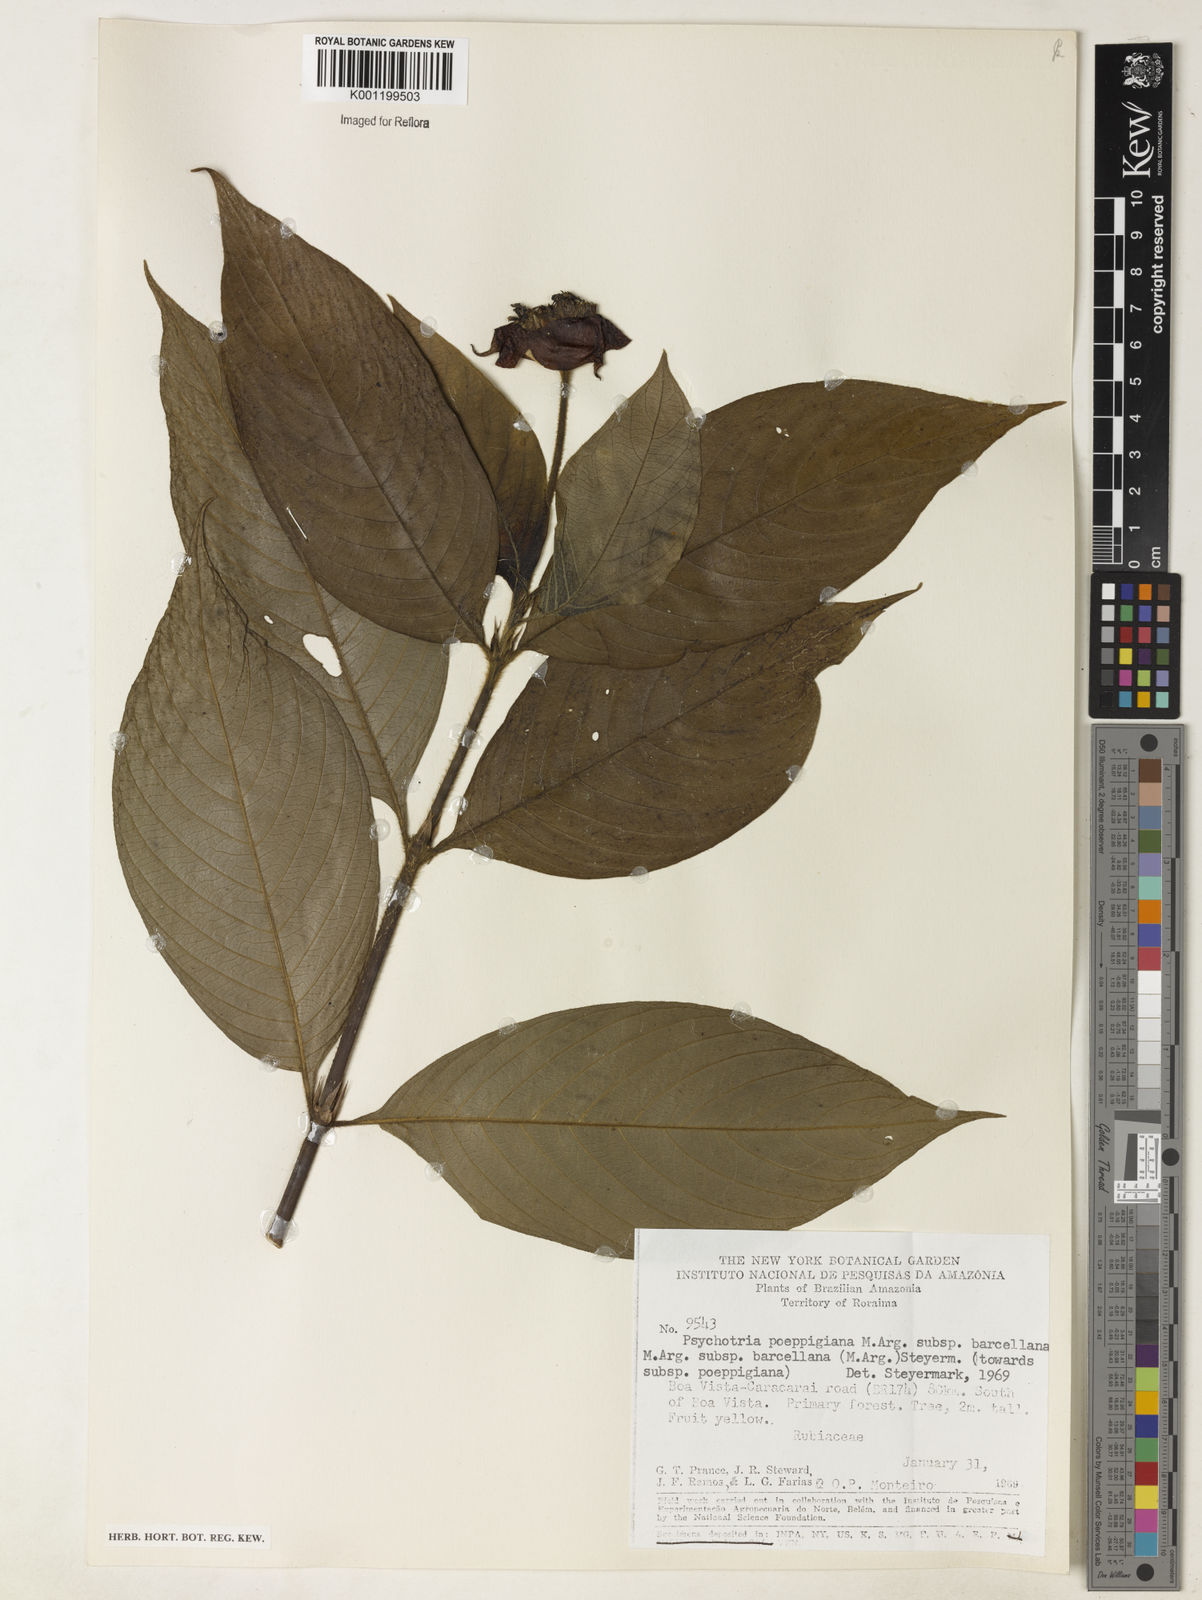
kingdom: Plantae
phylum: Tracheophyta
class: Magnoliopsida
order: Gentianales
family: Rubiaceae
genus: Psychotria
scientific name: Psychotria
